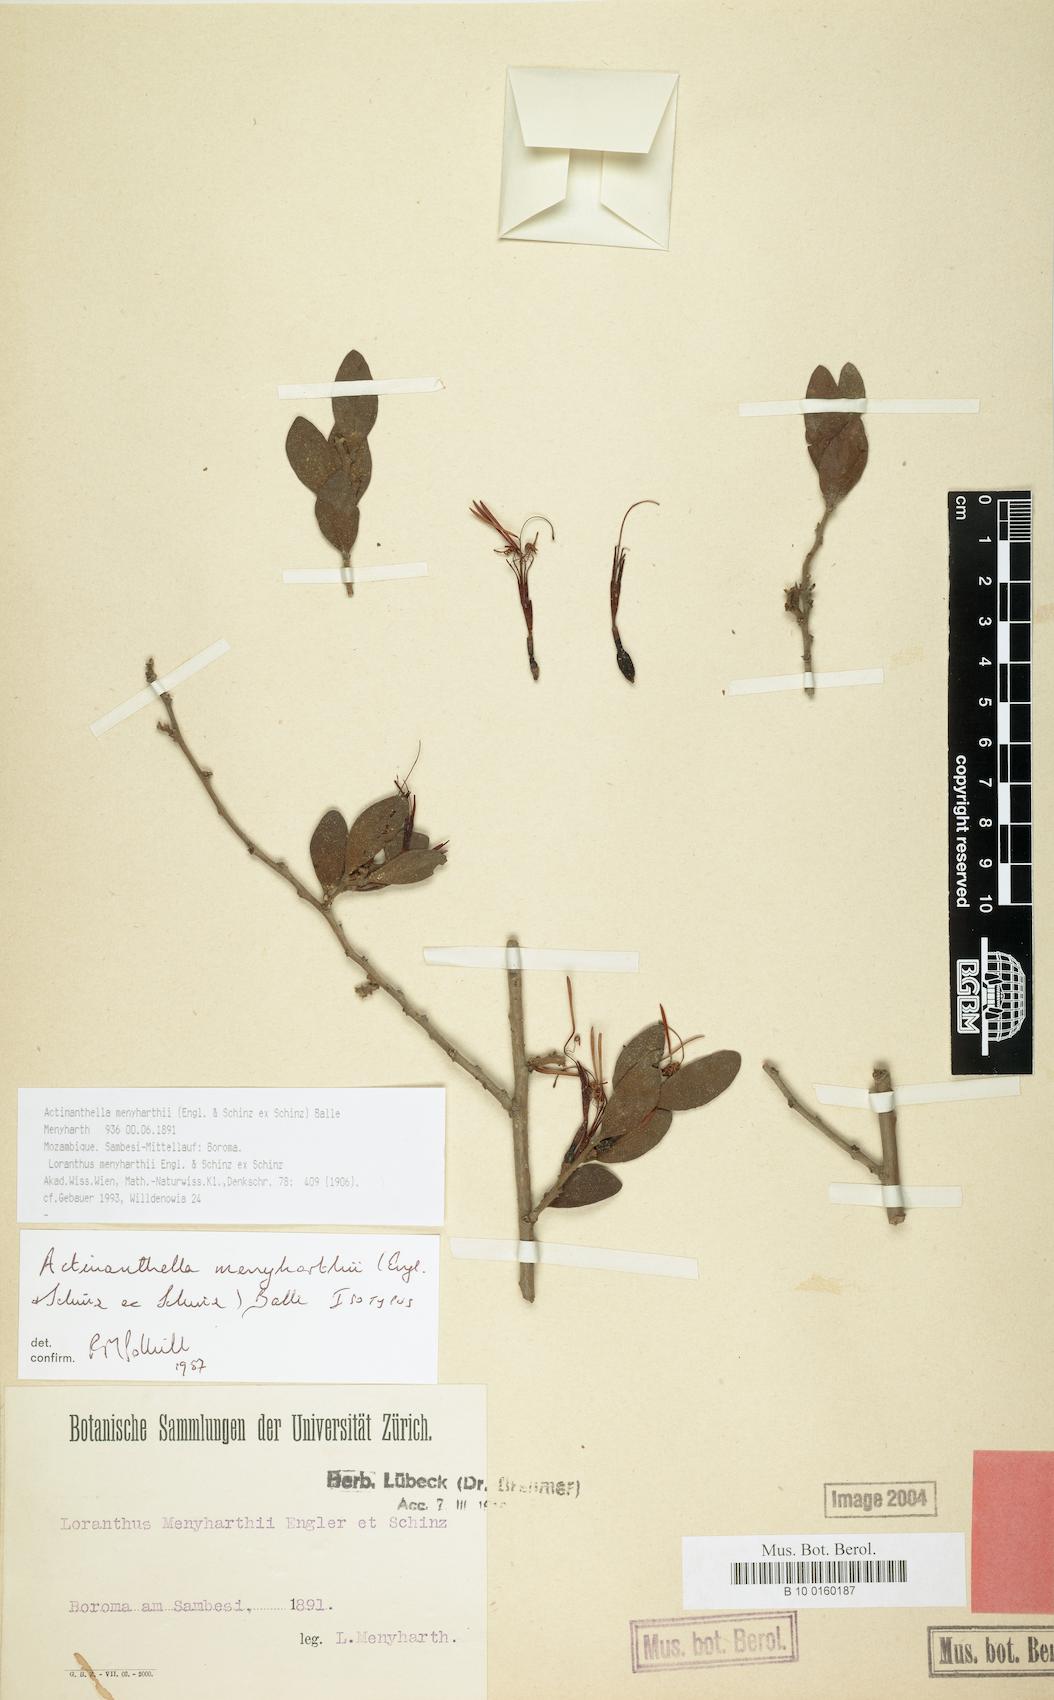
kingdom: Plantae
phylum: Tracheophyta
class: Magnoliopsida
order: Santalales
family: Loranthaceae
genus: Actinanthella
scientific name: Actinanthella menyharthii
